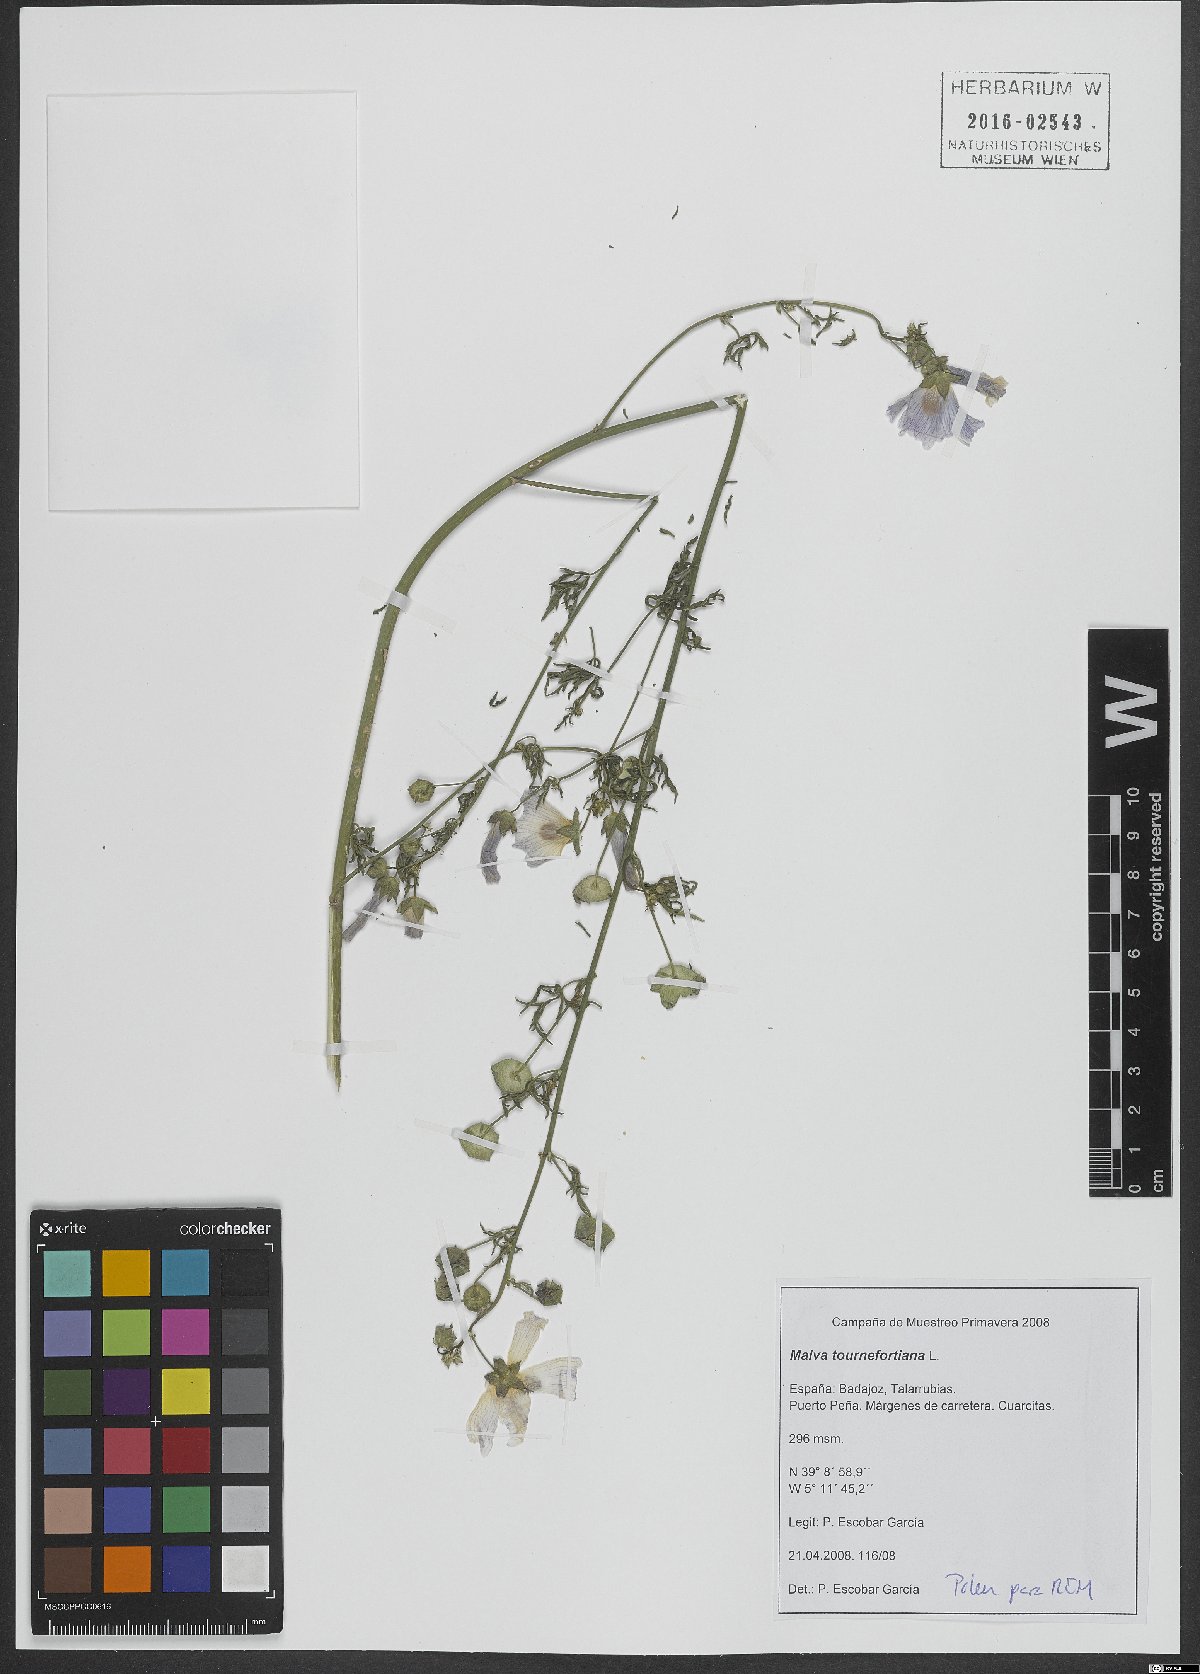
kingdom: Plantae
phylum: Tracheophyta
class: Magnoliopsida
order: Malvales
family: Malvaceae
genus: Malva
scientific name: Malva tournefortiana
